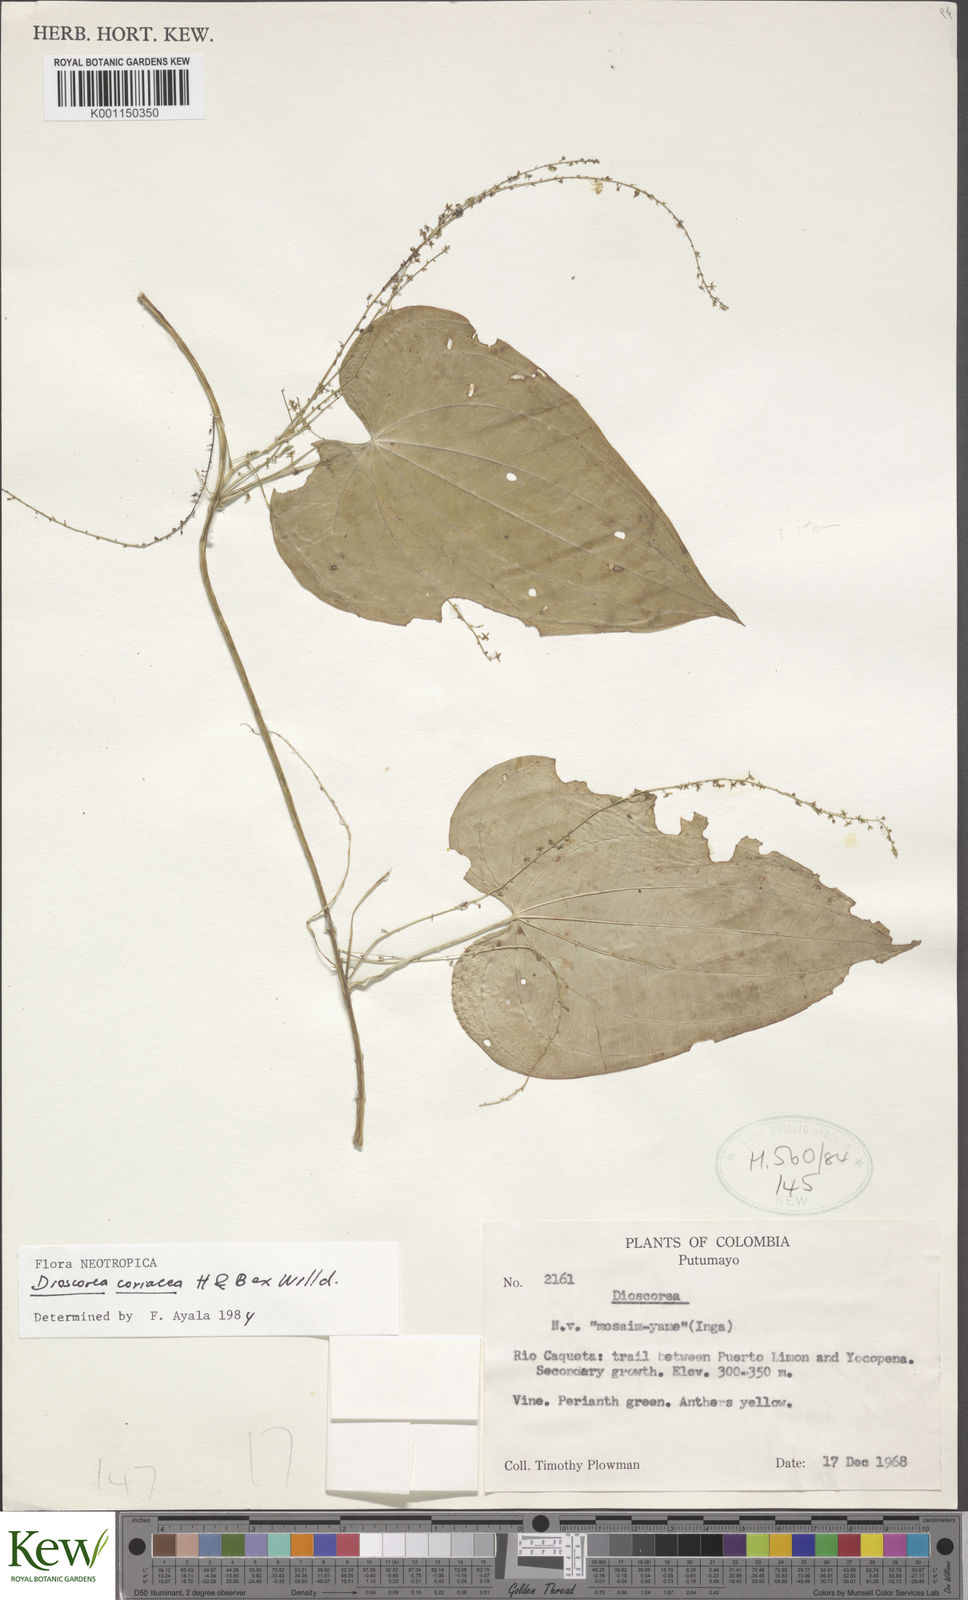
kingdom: Plantae
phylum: Tracheophyta
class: Liliopsida
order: Dioscoreales
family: Dioscoreaceae
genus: Dioscorea
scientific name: Dioscorea coriacea
